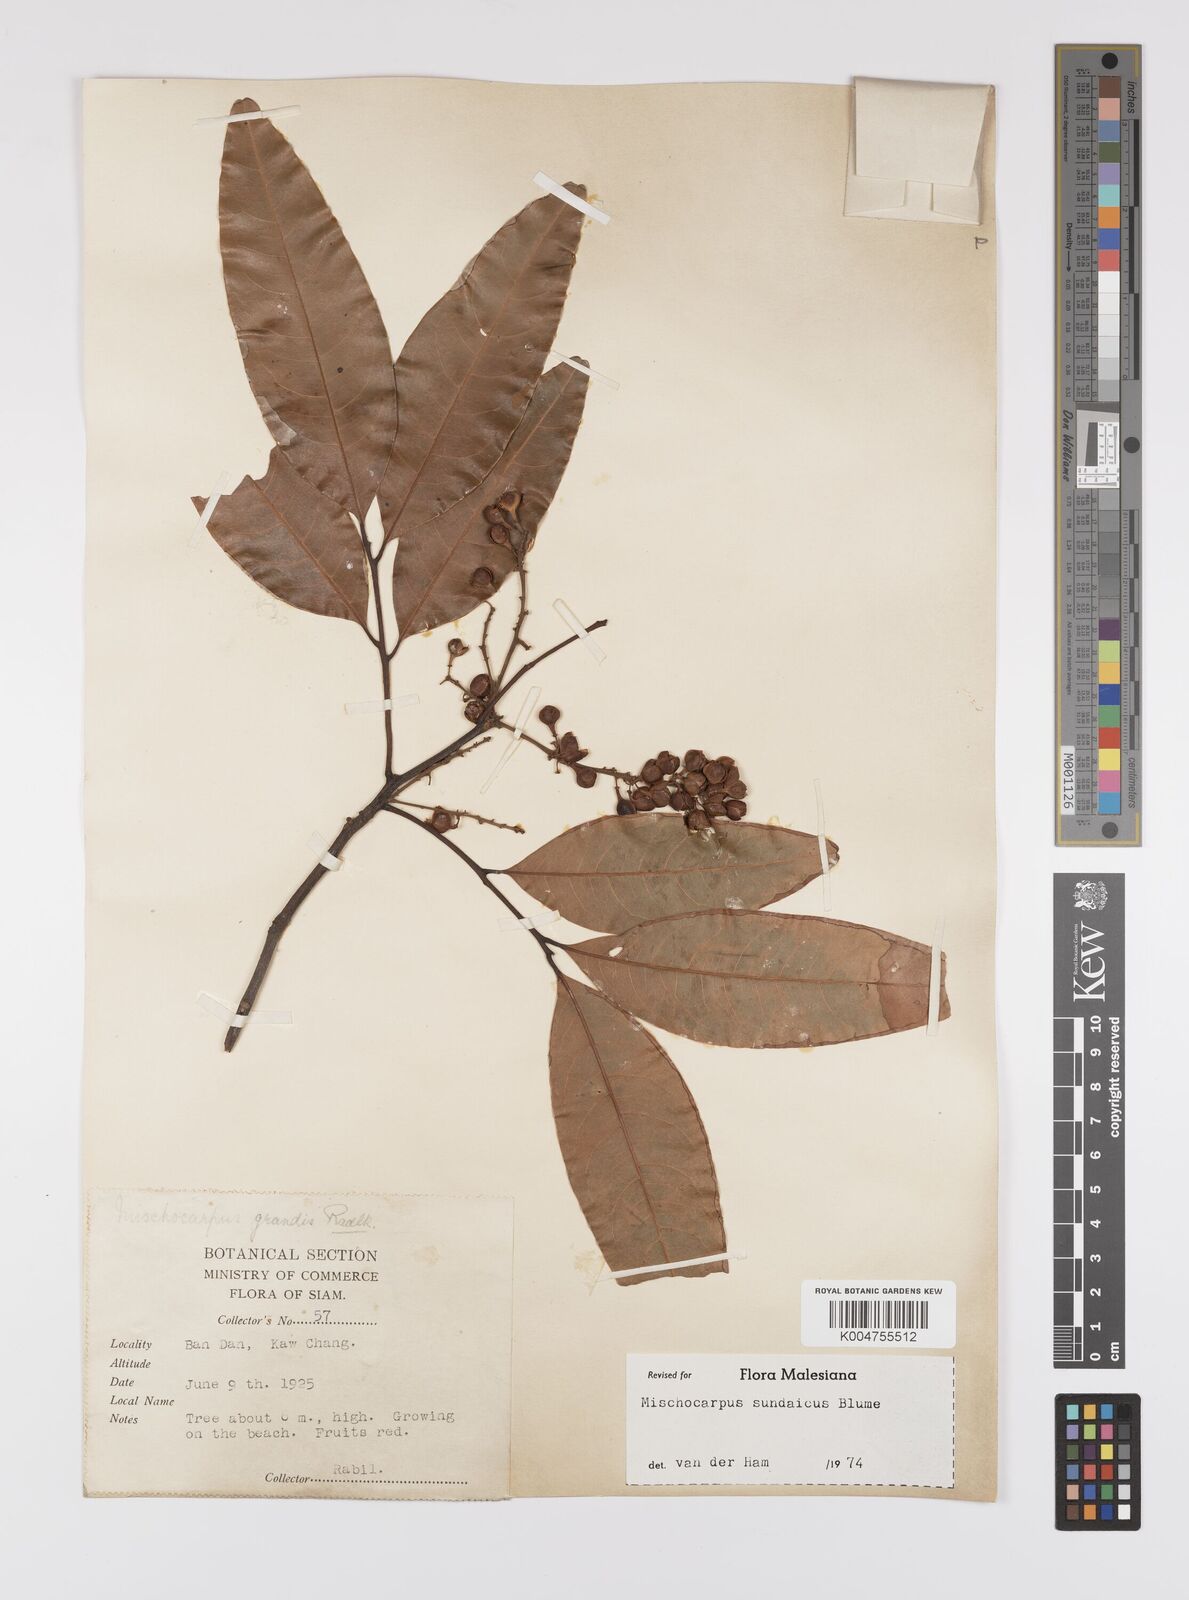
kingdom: Plantae
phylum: Tracheophyta
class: Magnoliopsida
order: Sapindales
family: Sapindaceae
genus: Mischocarpus
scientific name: Mischocarpus sundaicus
